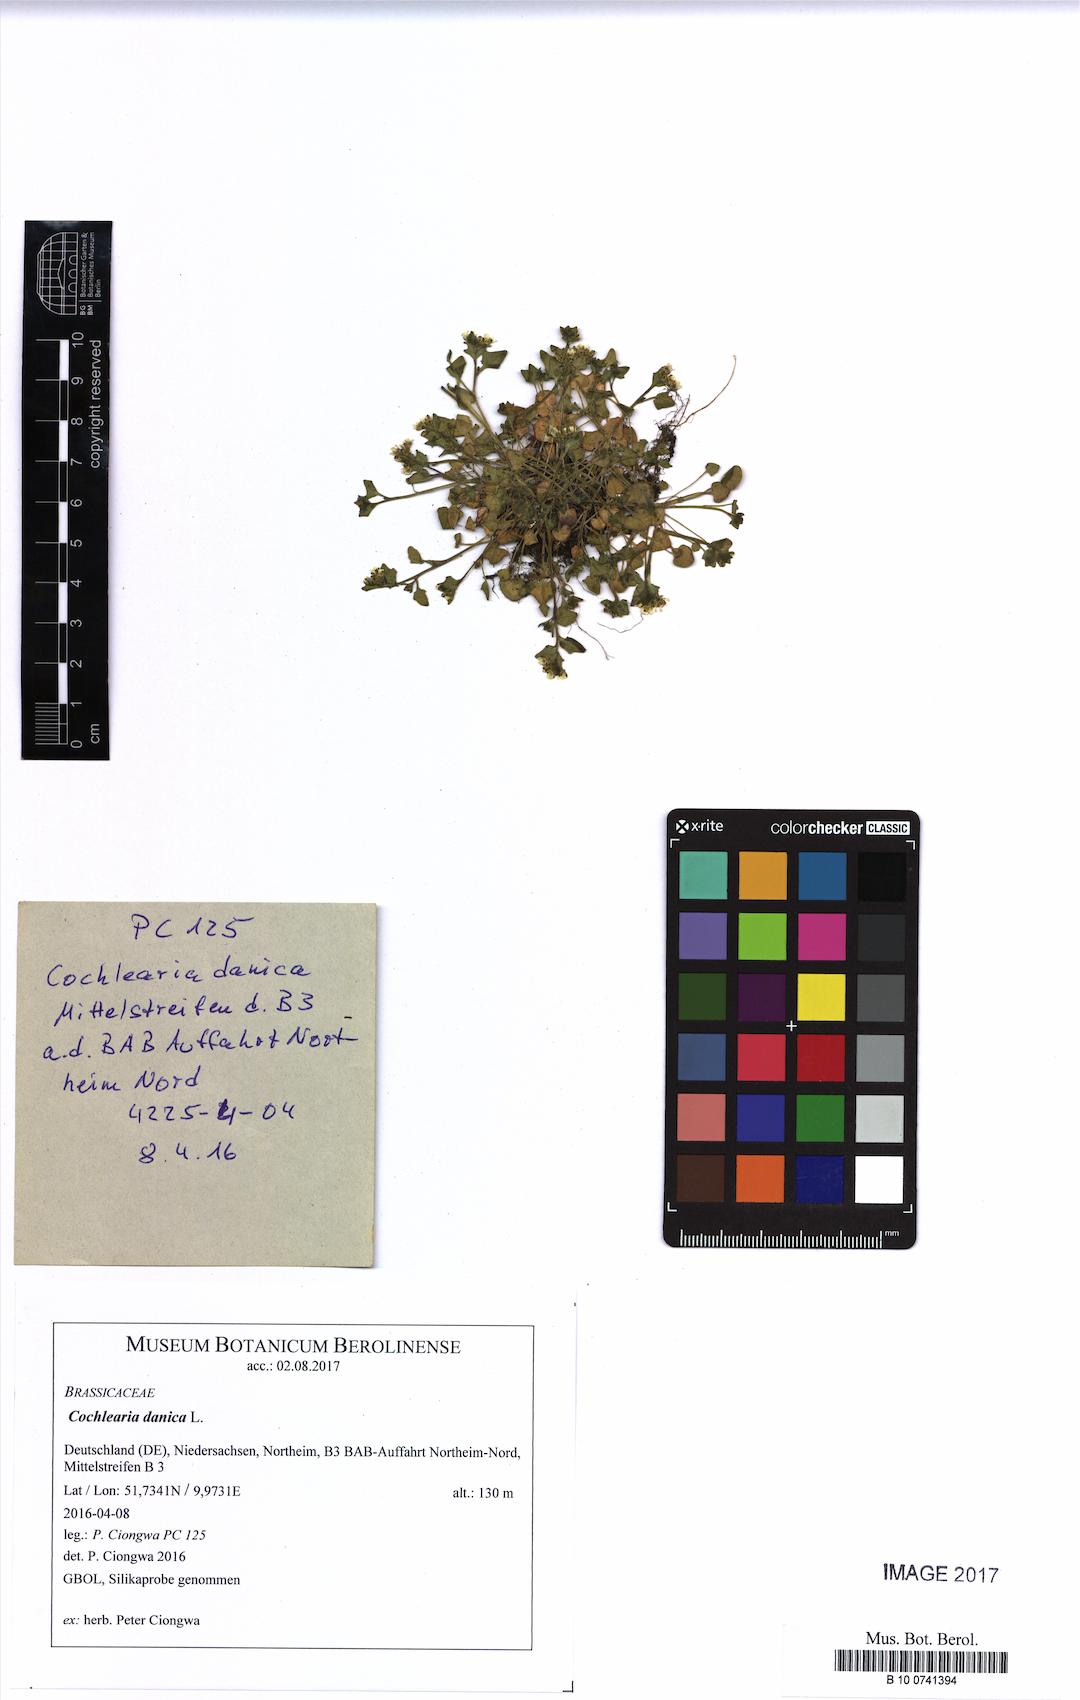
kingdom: Plantae
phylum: Tracheophyta
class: Magnoliopsida
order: Brassicales
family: Brassicaceae
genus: Cochlearia
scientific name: Cochlearia danica
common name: Early scurvygrass
